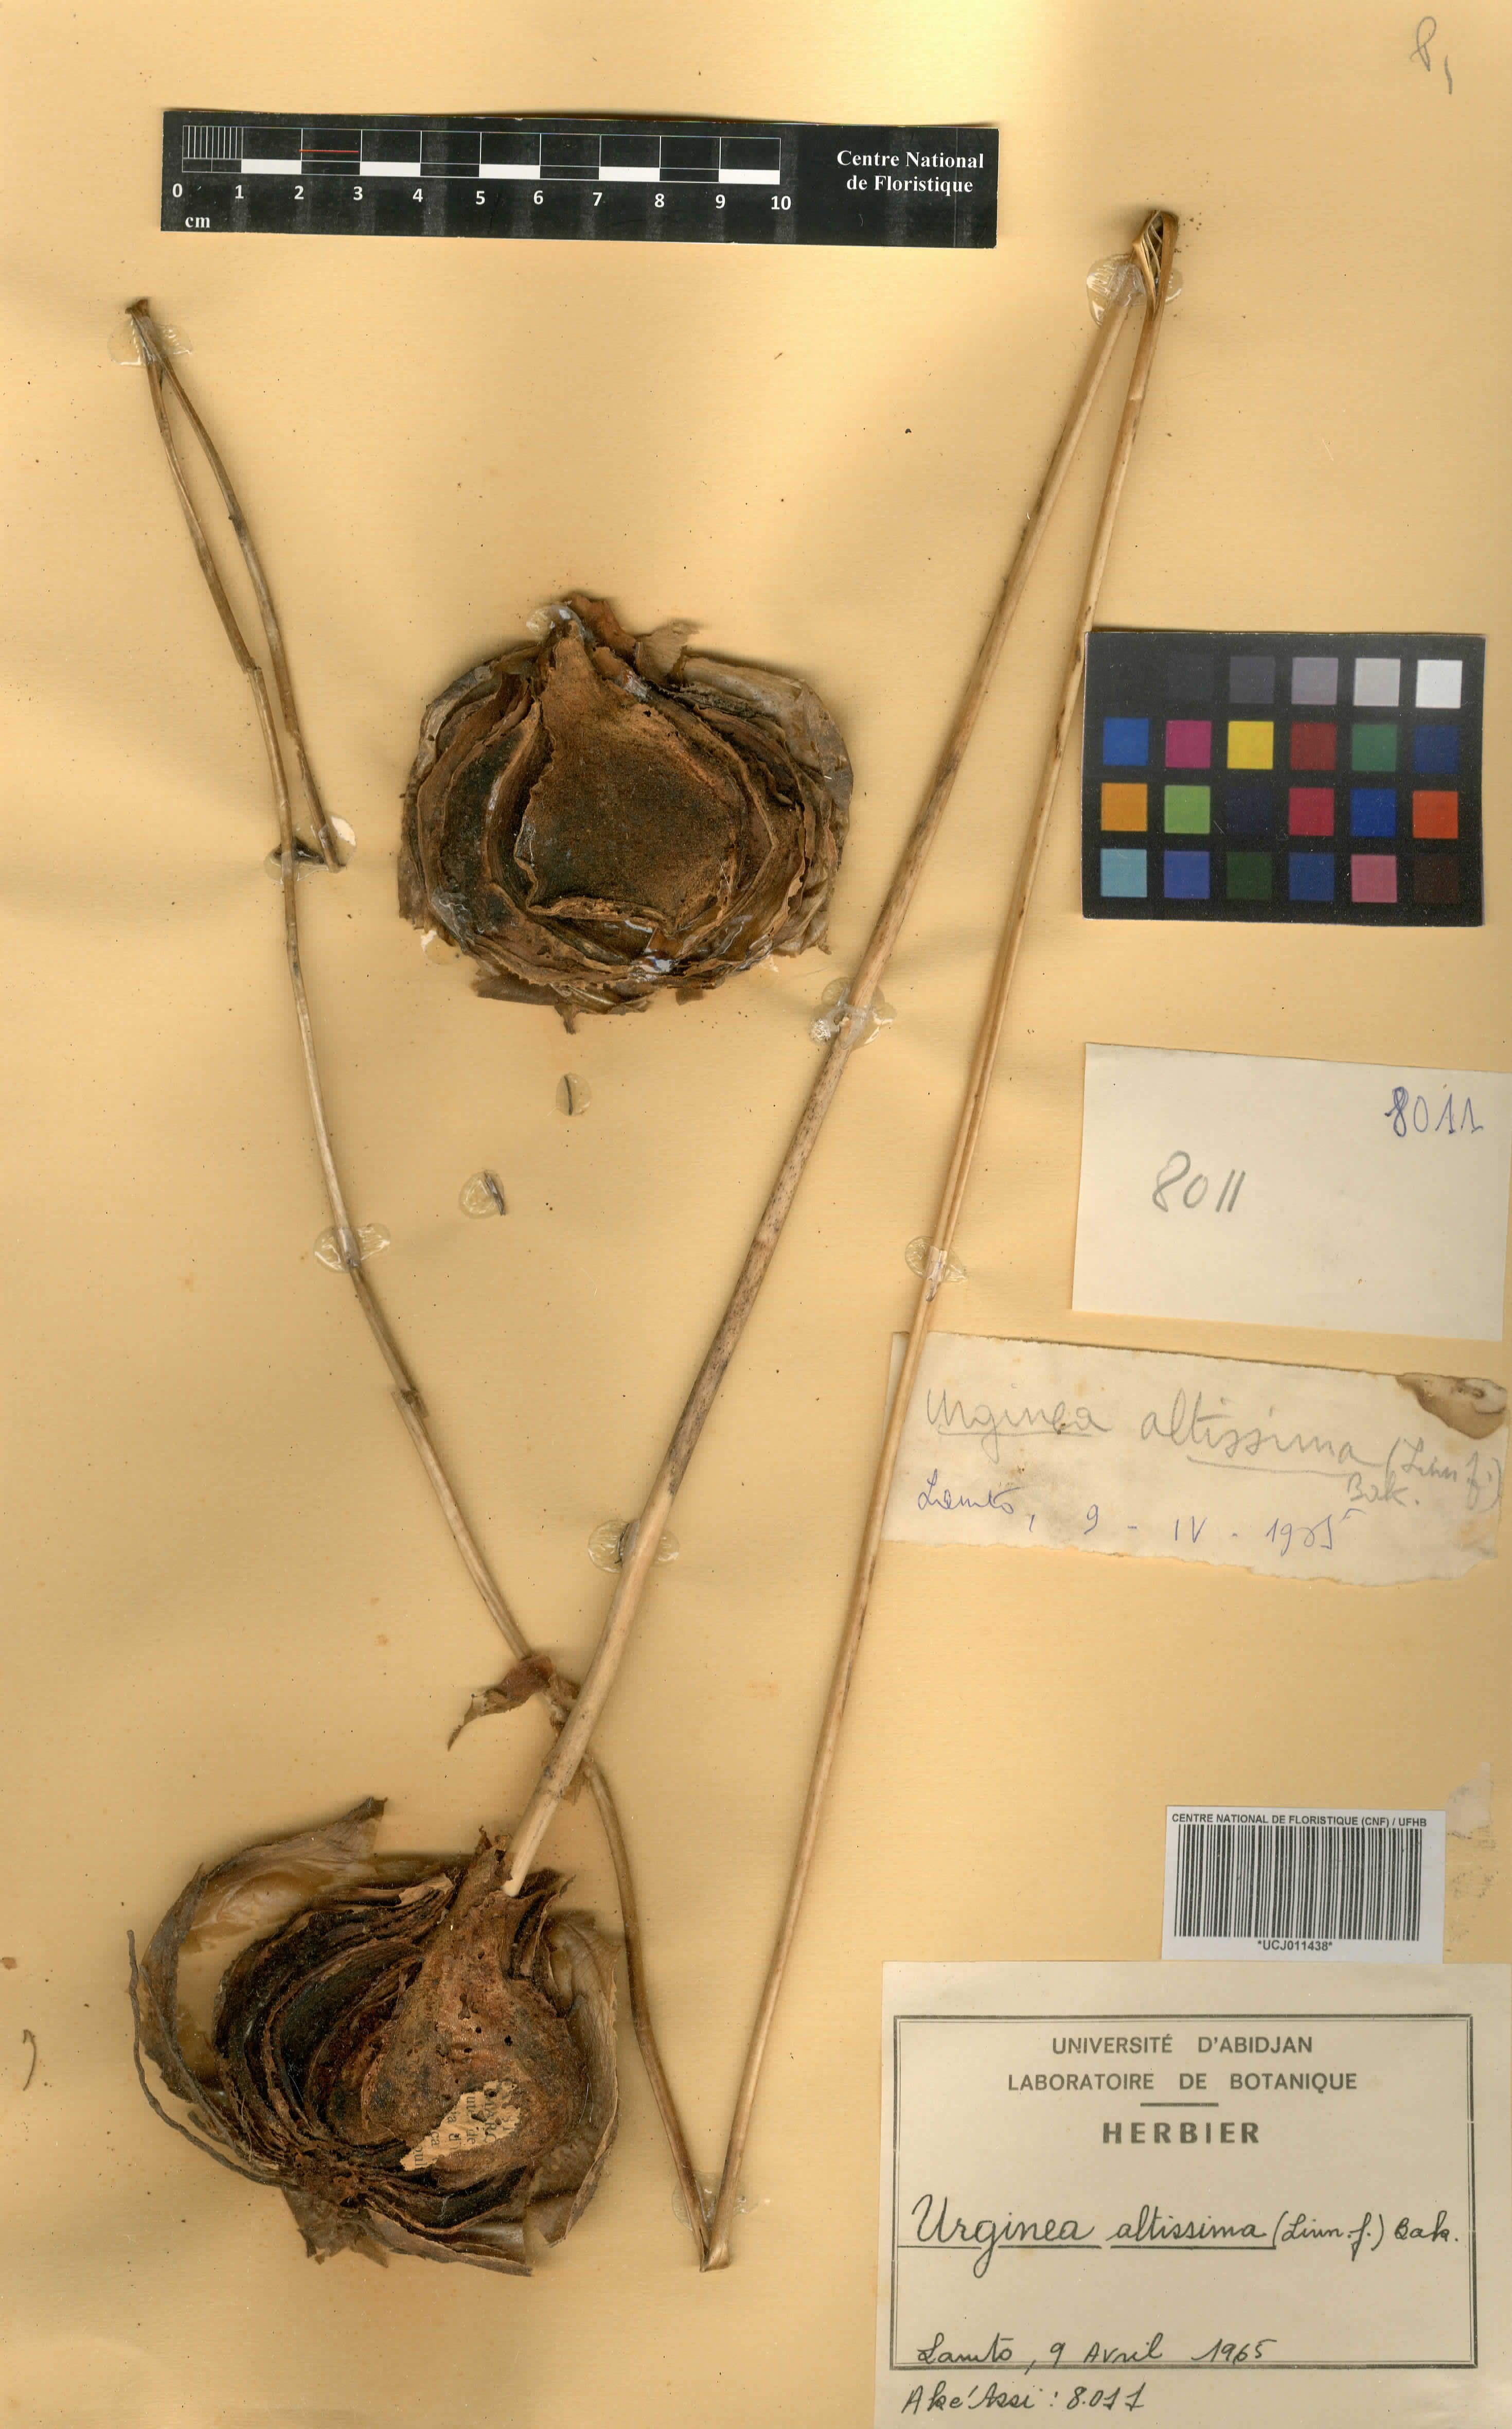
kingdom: Plantae
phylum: Tracheophyta
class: Liliopsida
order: Asparagales
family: Asparagaceae
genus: Drimia
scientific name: Drimia altissima
